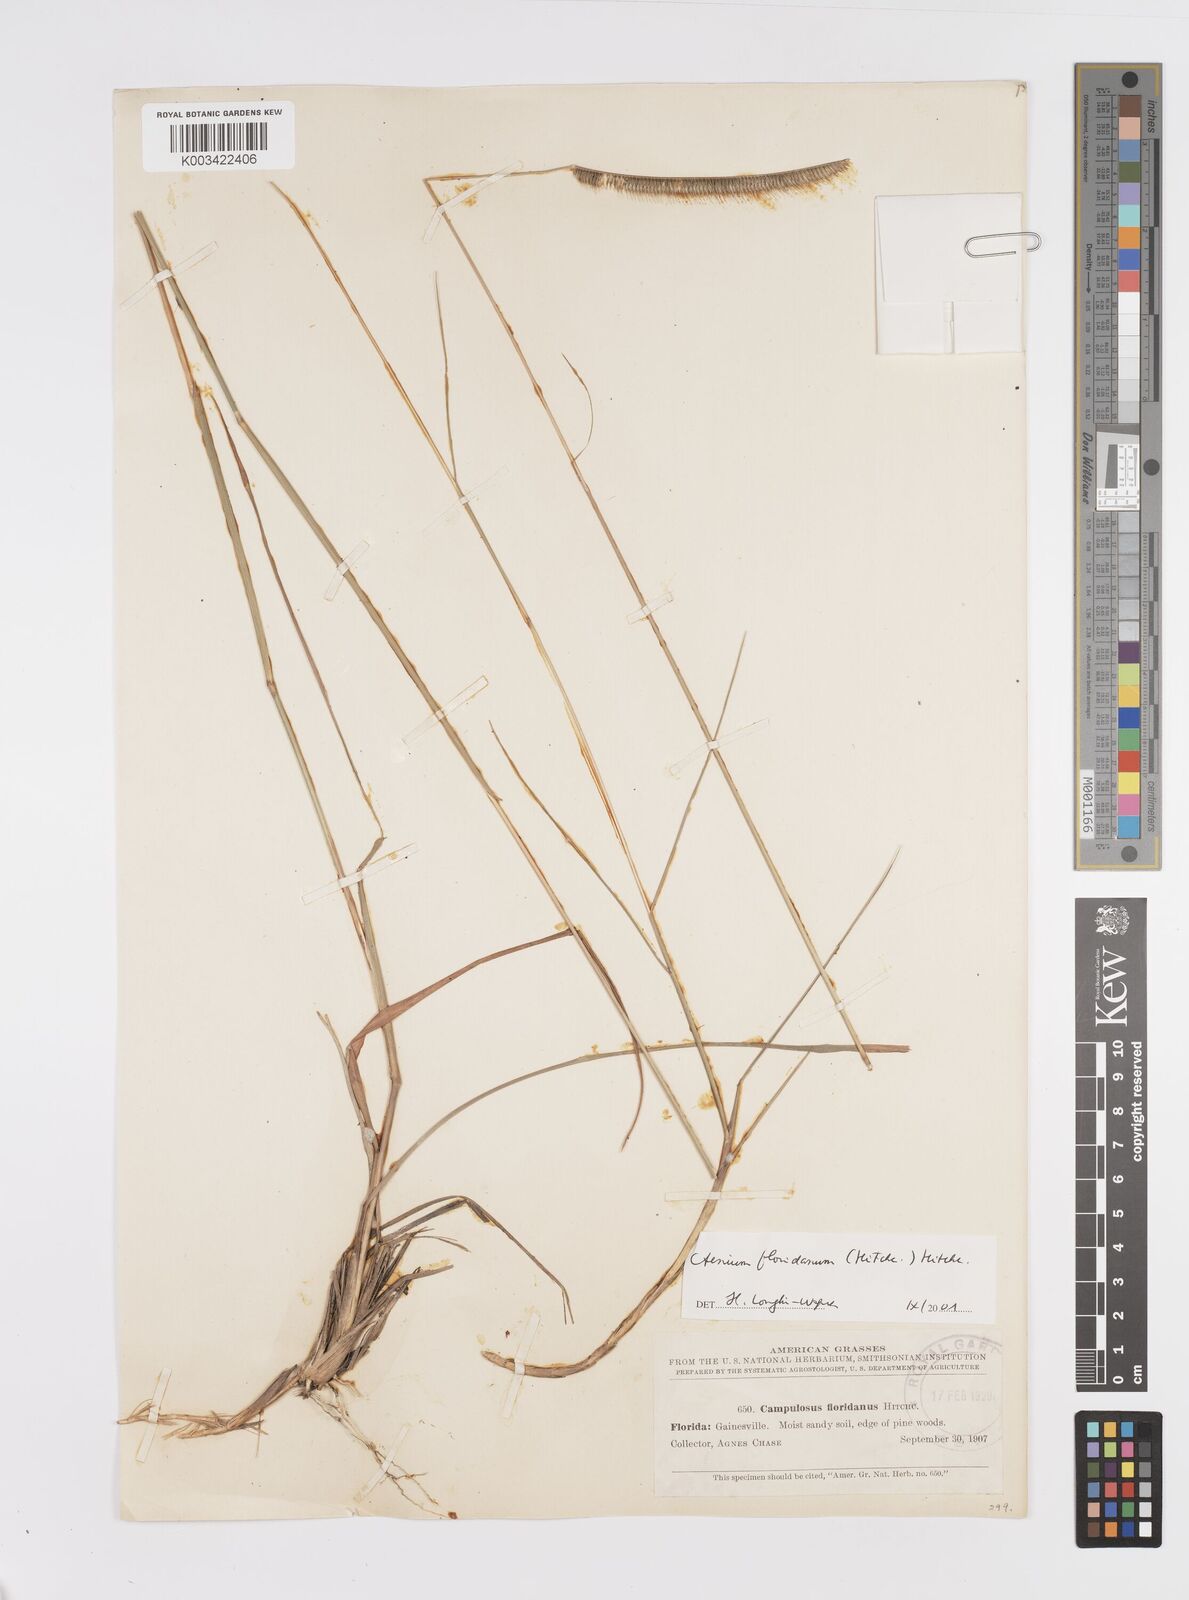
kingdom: Plantae
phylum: Tracheophyta
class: Liliopsida
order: Poales
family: Poaceae
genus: Ctenium
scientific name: Ctenium floridanum
